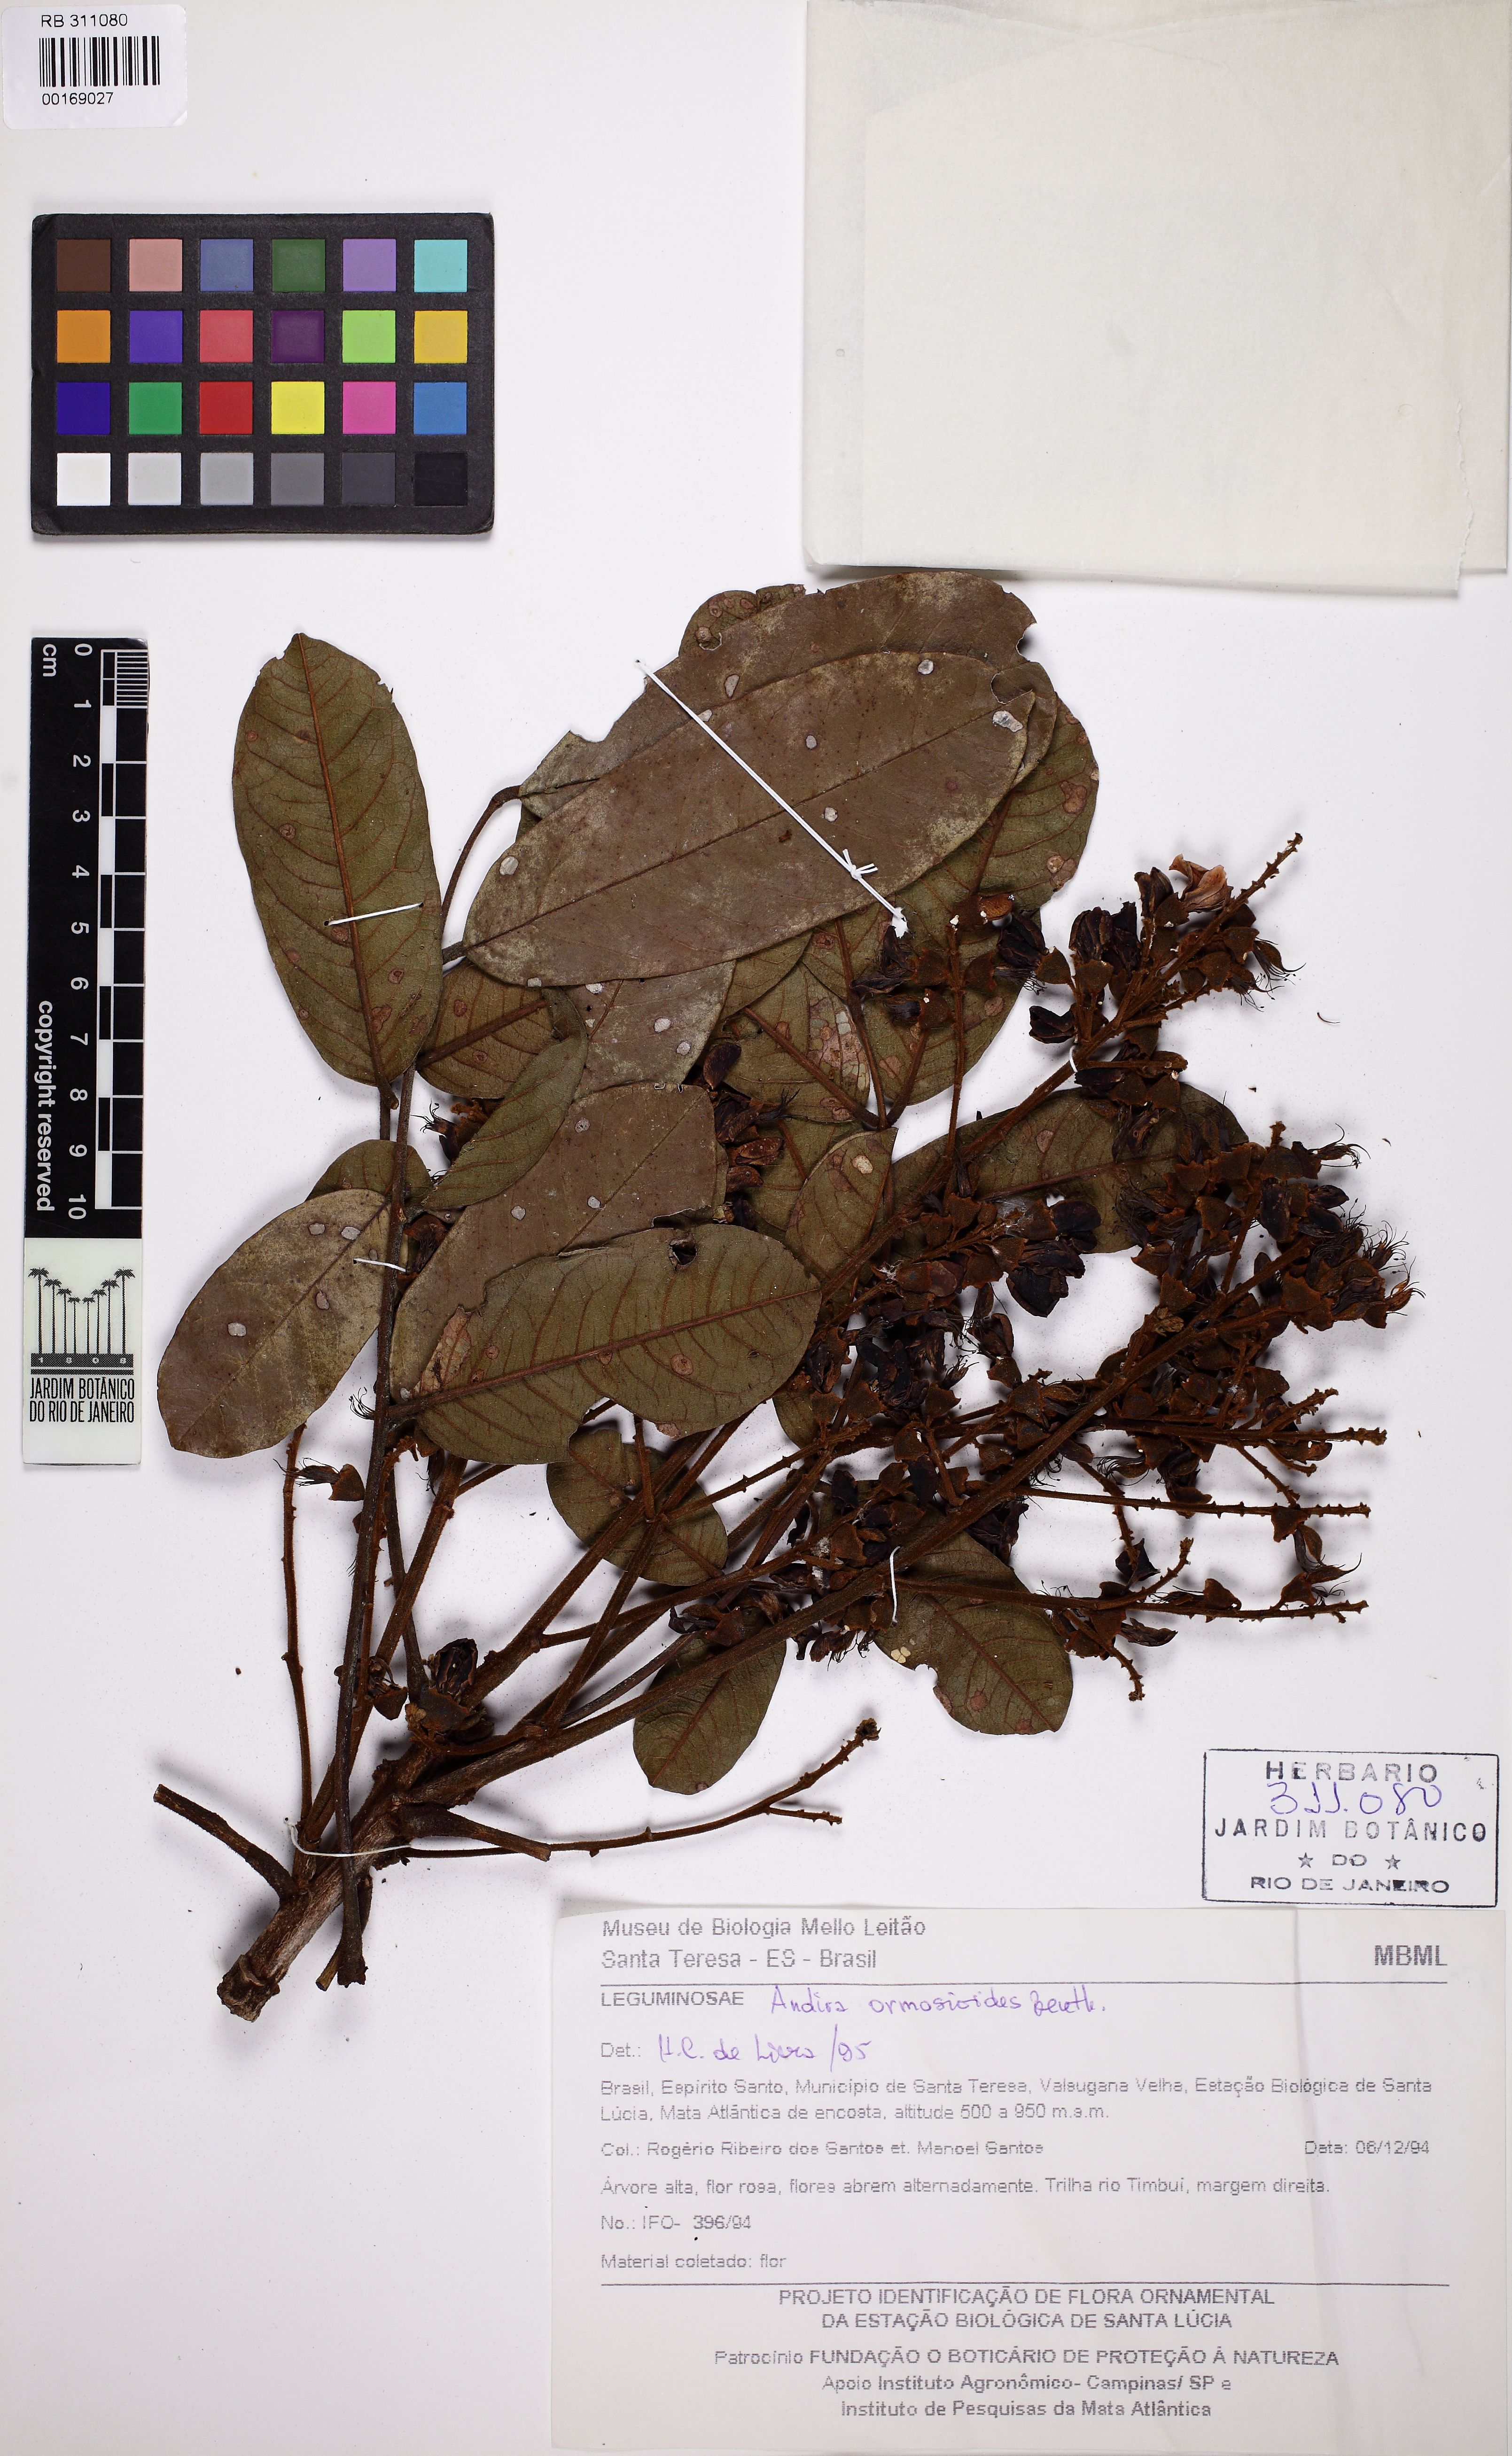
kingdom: Plantae
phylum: Tracheophyta
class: Magnoliopsida
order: Fabales
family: Fabaceae
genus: Andira
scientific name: Andira ormosioides
